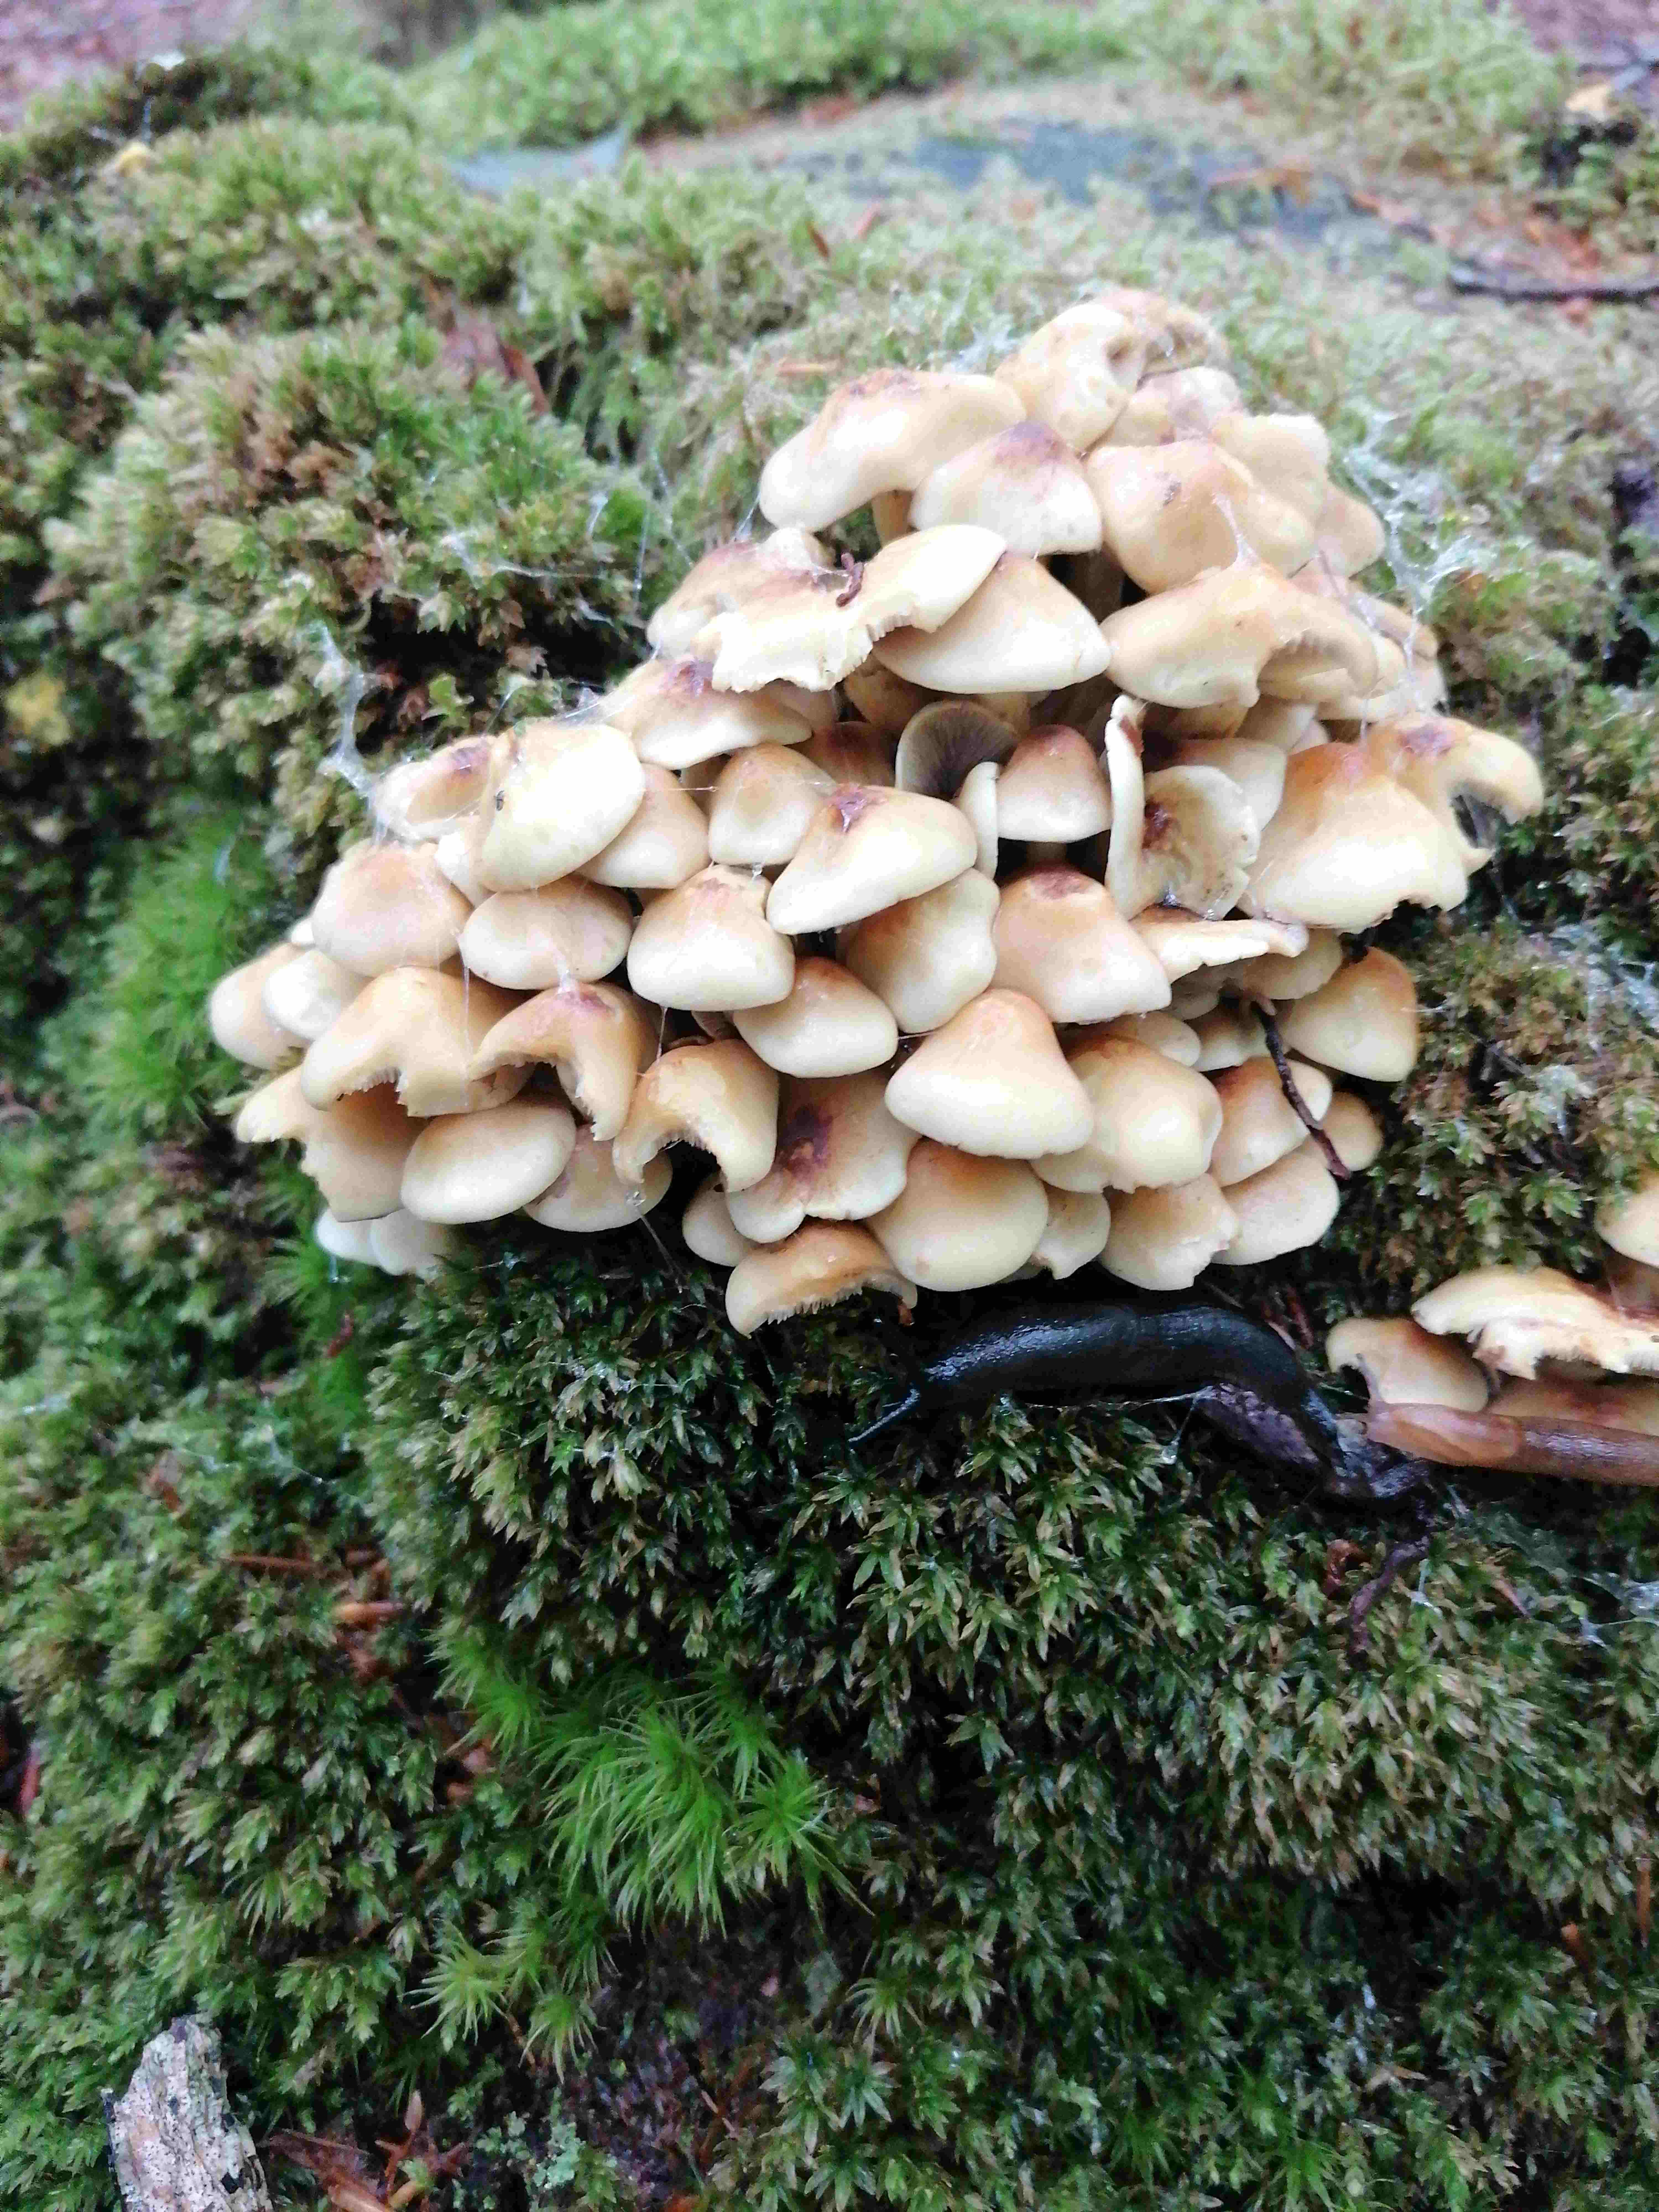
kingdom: Fungi
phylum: Basidiomycota
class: Agaricomycetes
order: Agaricales
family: Strophariaceae
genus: Hypholoma
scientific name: Hypholoma fasciculare
